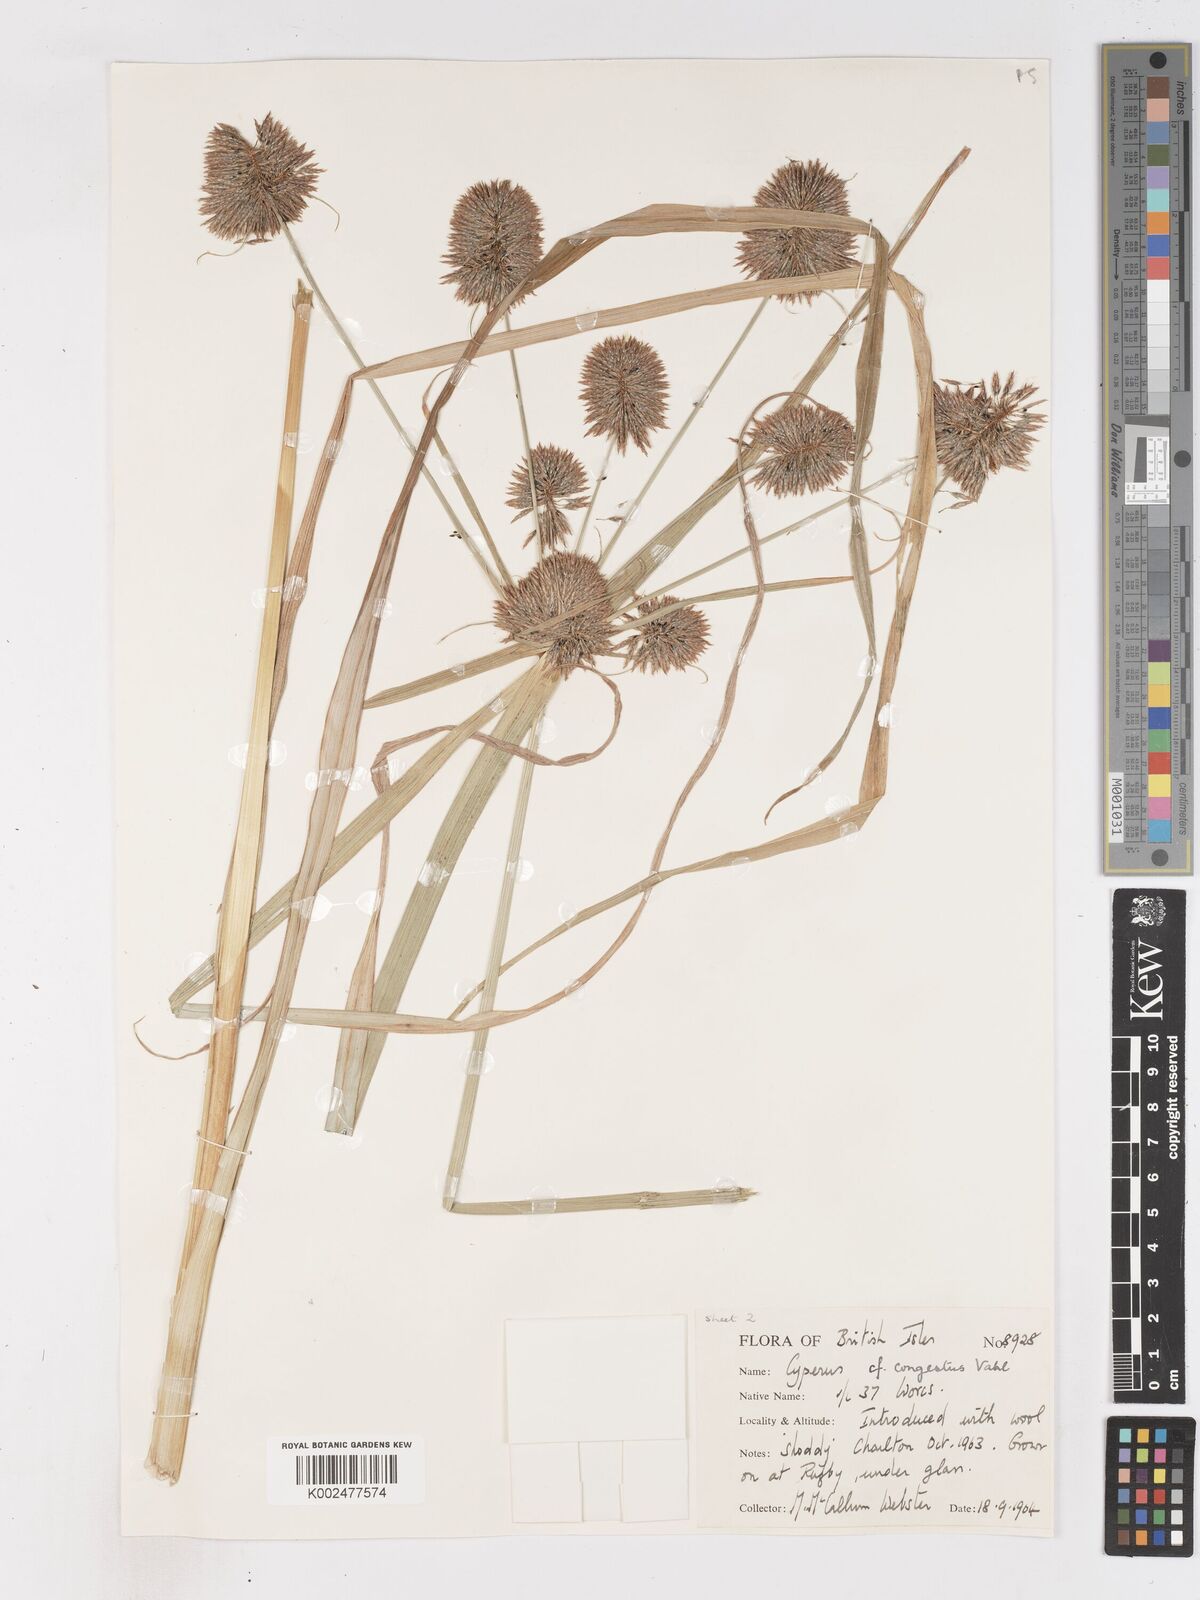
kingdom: Plantae
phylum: Tracheophyta
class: Liliopsida
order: Poales
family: Cyperaceae
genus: Cyperus
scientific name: Cyperus congestus
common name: Dense flat sedge
